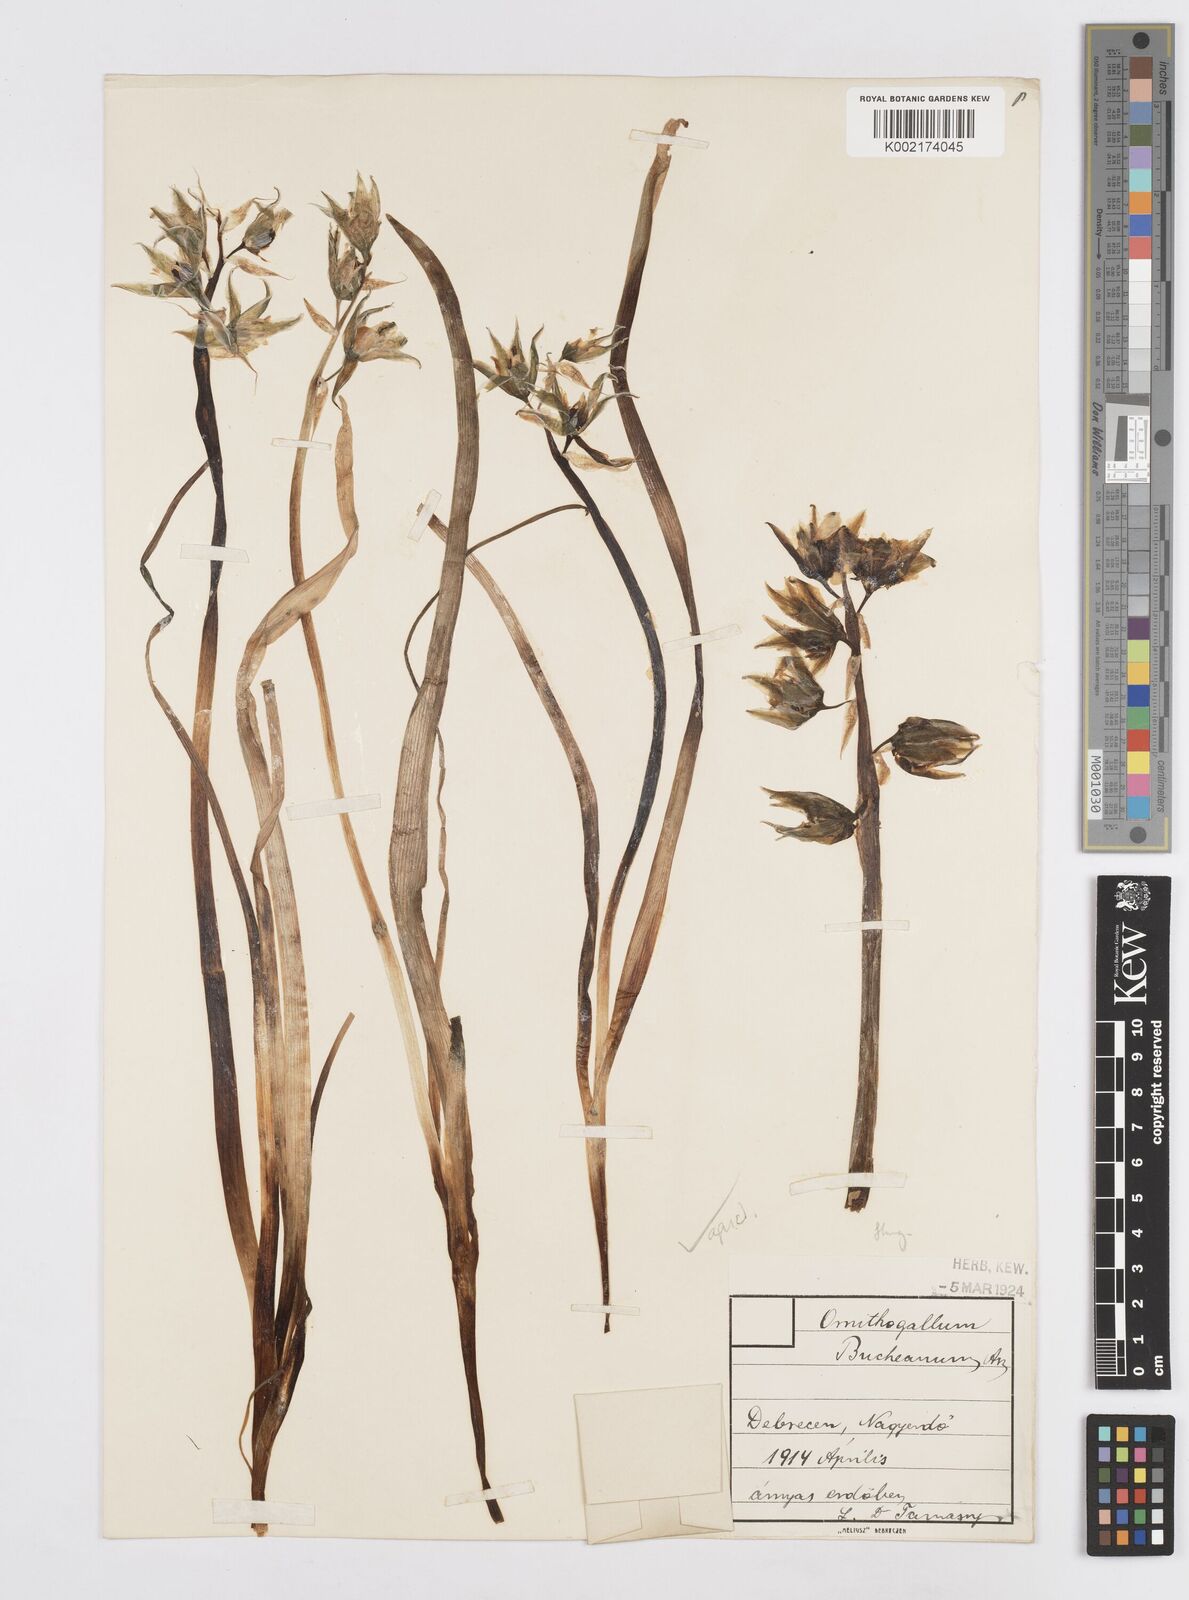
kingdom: Plantae
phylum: Tracheophyta
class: Liliopsida
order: Asparagales
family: Asparagaceae
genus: Ornithogalum
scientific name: Ornithogalum boucheanum
